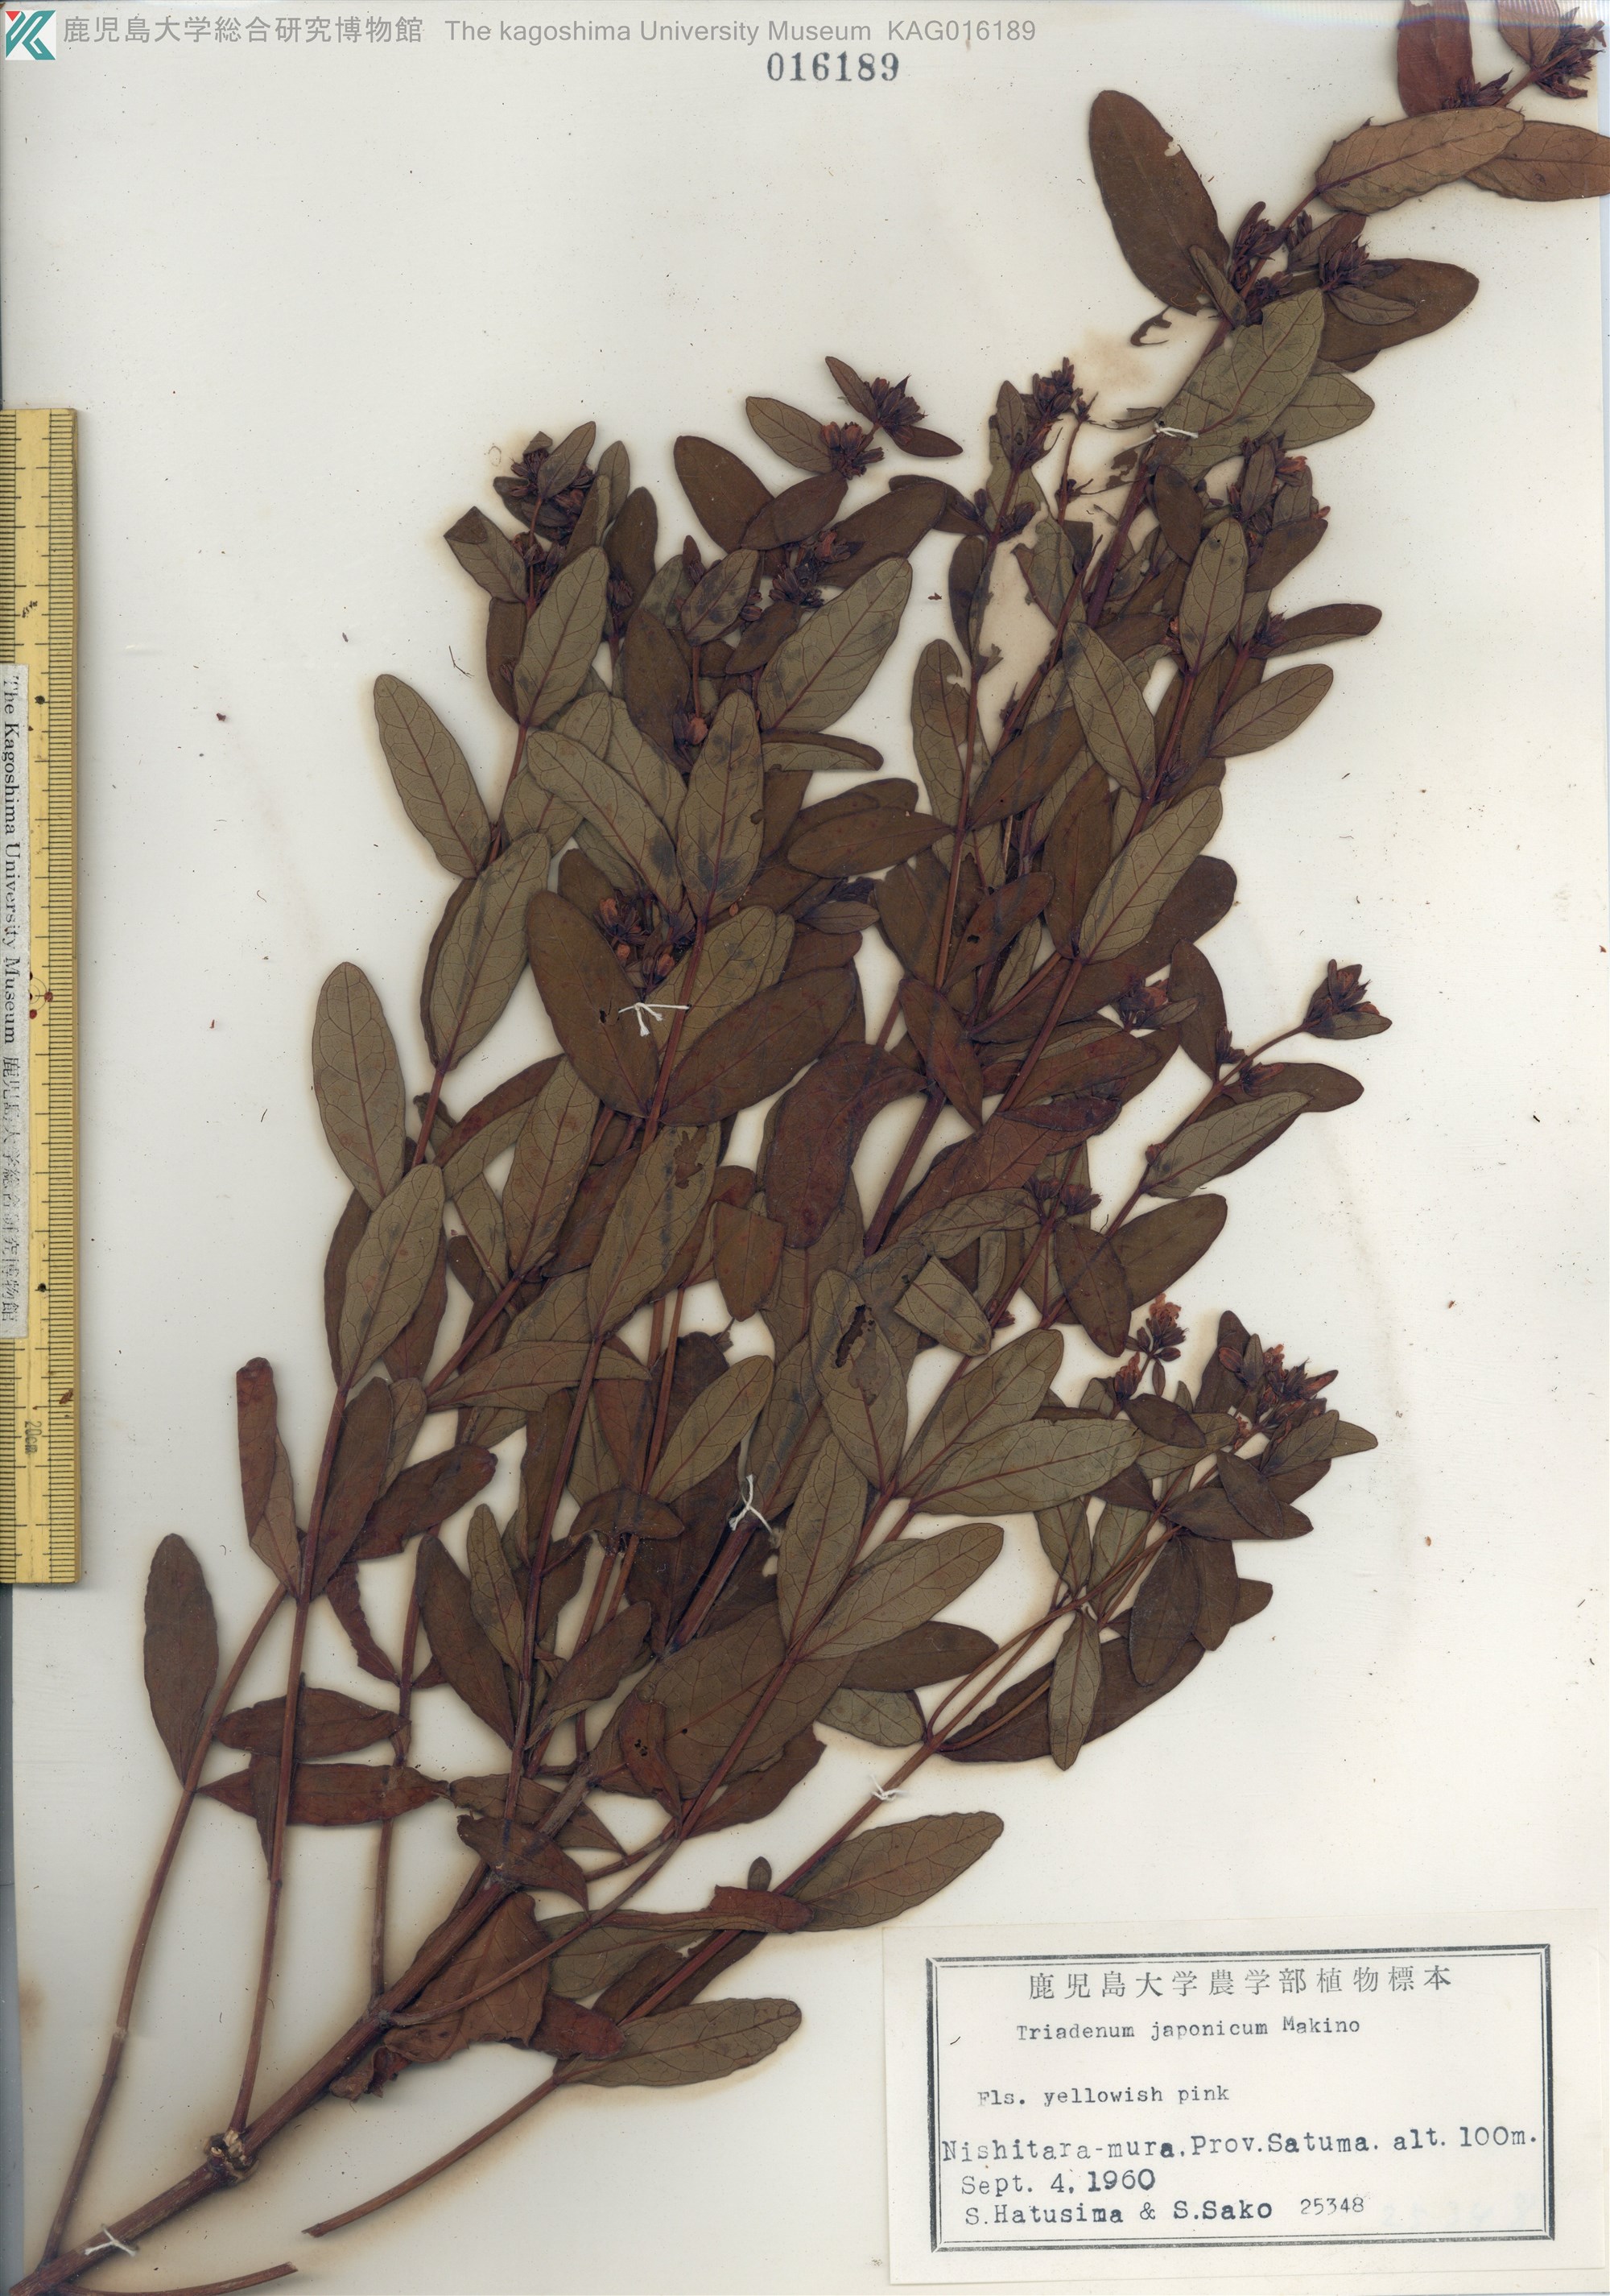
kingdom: Plantae
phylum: Tracheophyta
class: Magnoliopsida
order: Malpighiales
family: Hypericaceae
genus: Triadenum
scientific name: Triadenum japonicum
